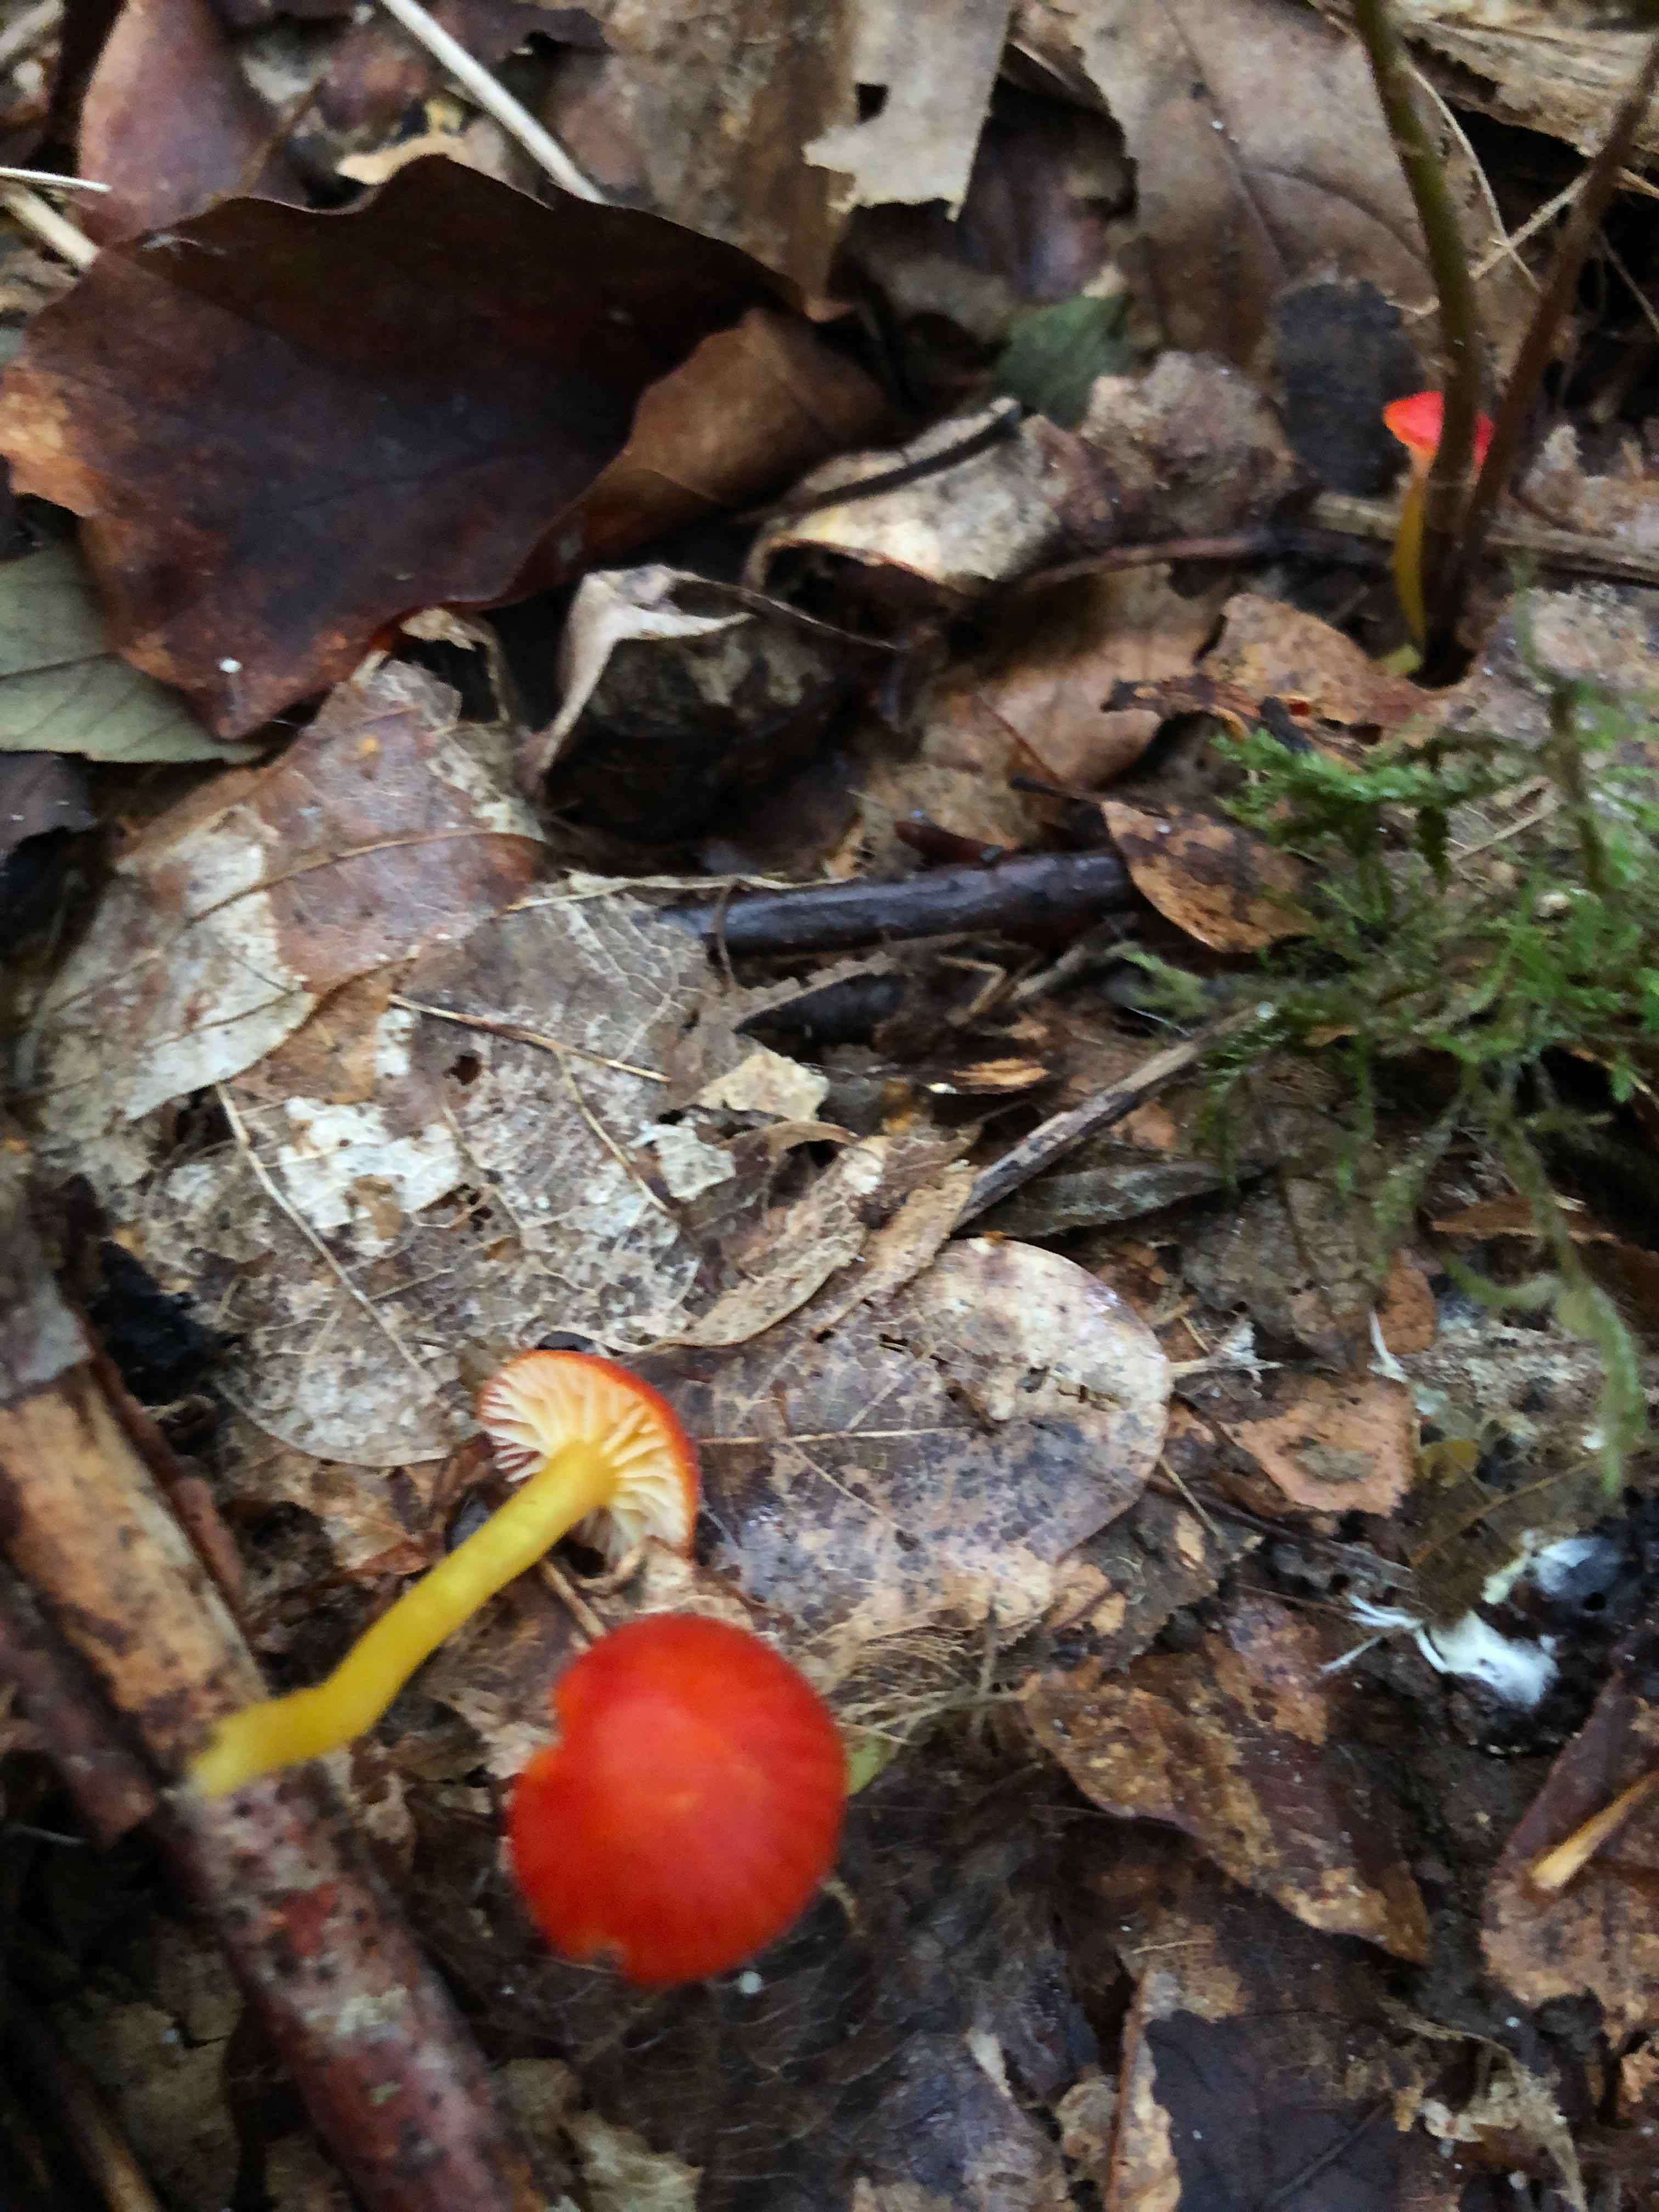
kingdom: Fungi
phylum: Basidiomycota
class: Agaricomycetes
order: Agaricales
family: Hygrophoraceae
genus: Hygrocybe
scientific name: Hygrocybe insipida
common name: liden vokshat
